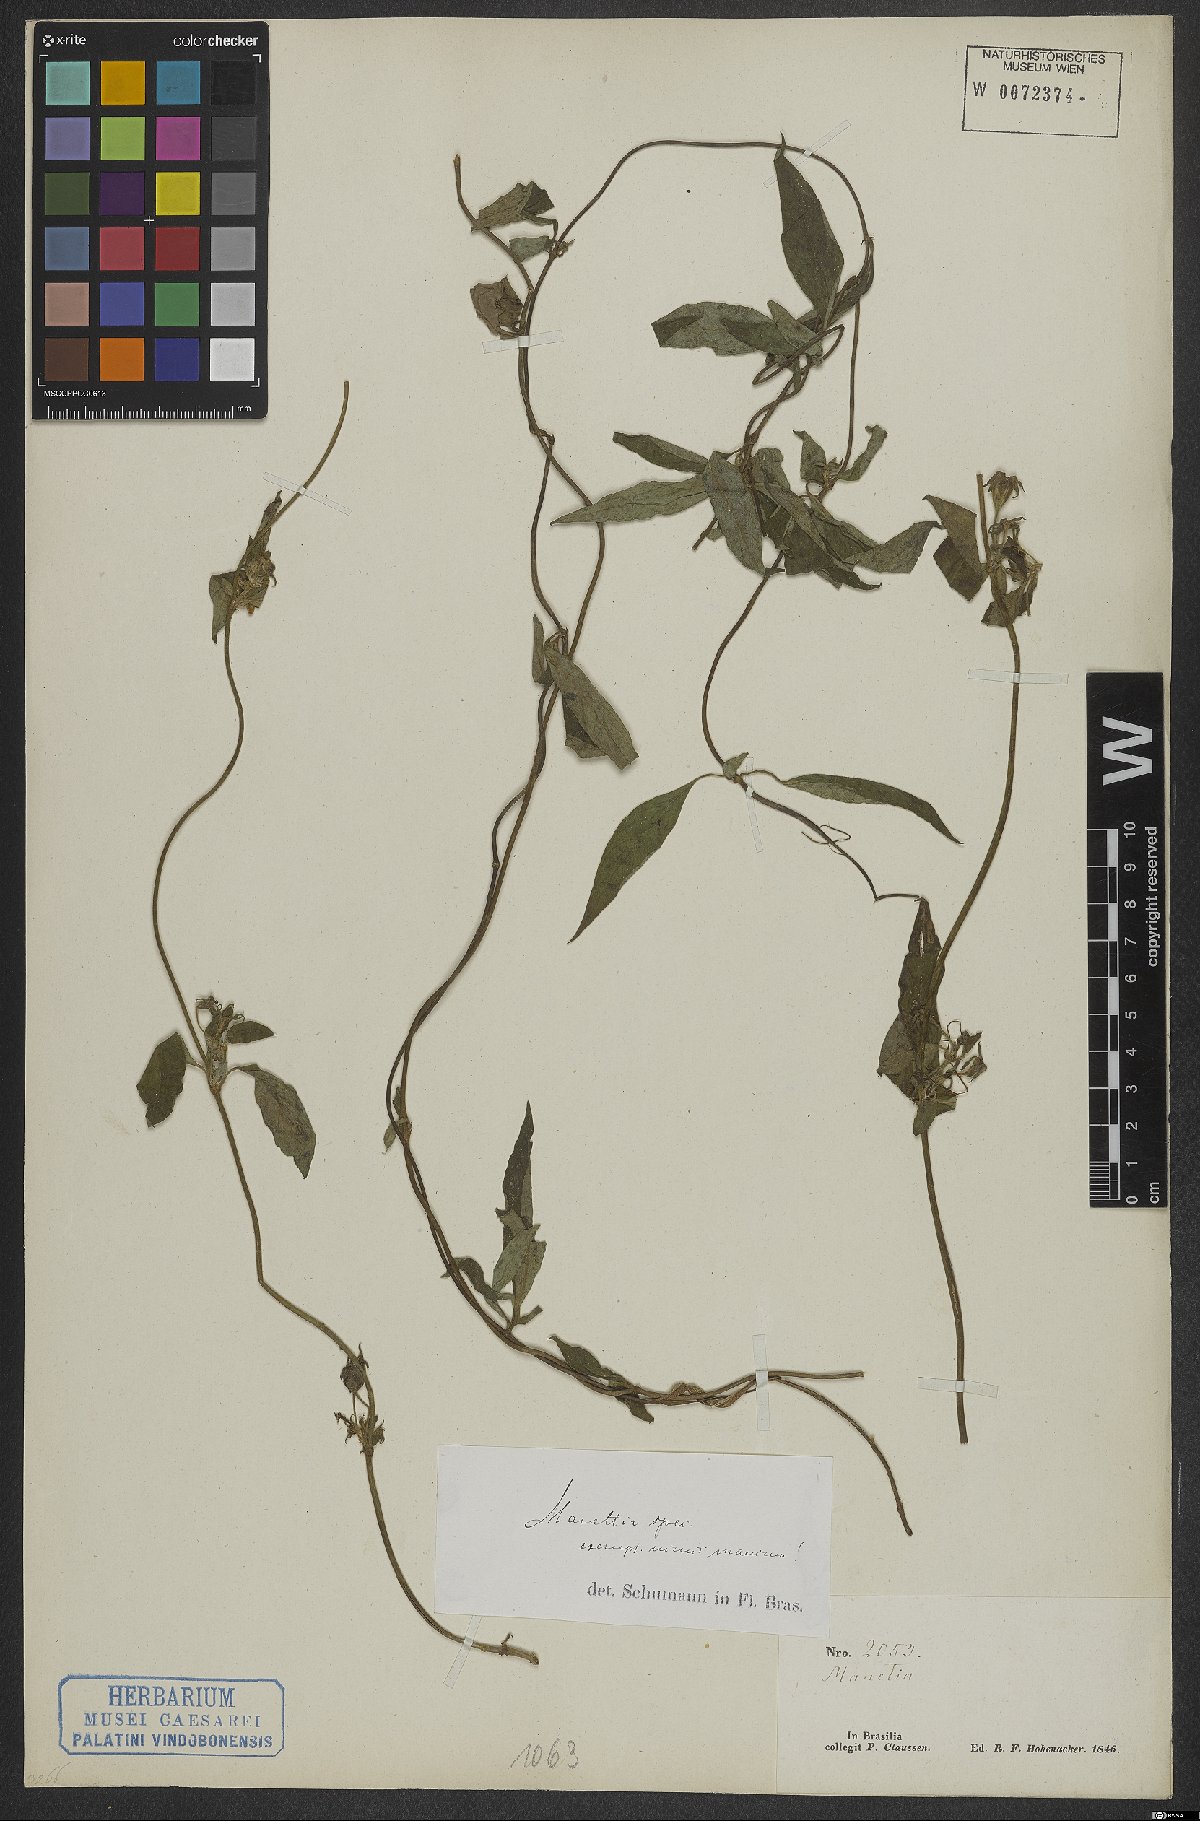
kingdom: Plantae
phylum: Tracheophyta
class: Magnoliopsida
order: Gentianales
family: Rubiaceae
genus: Manettia
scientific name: Manettia
